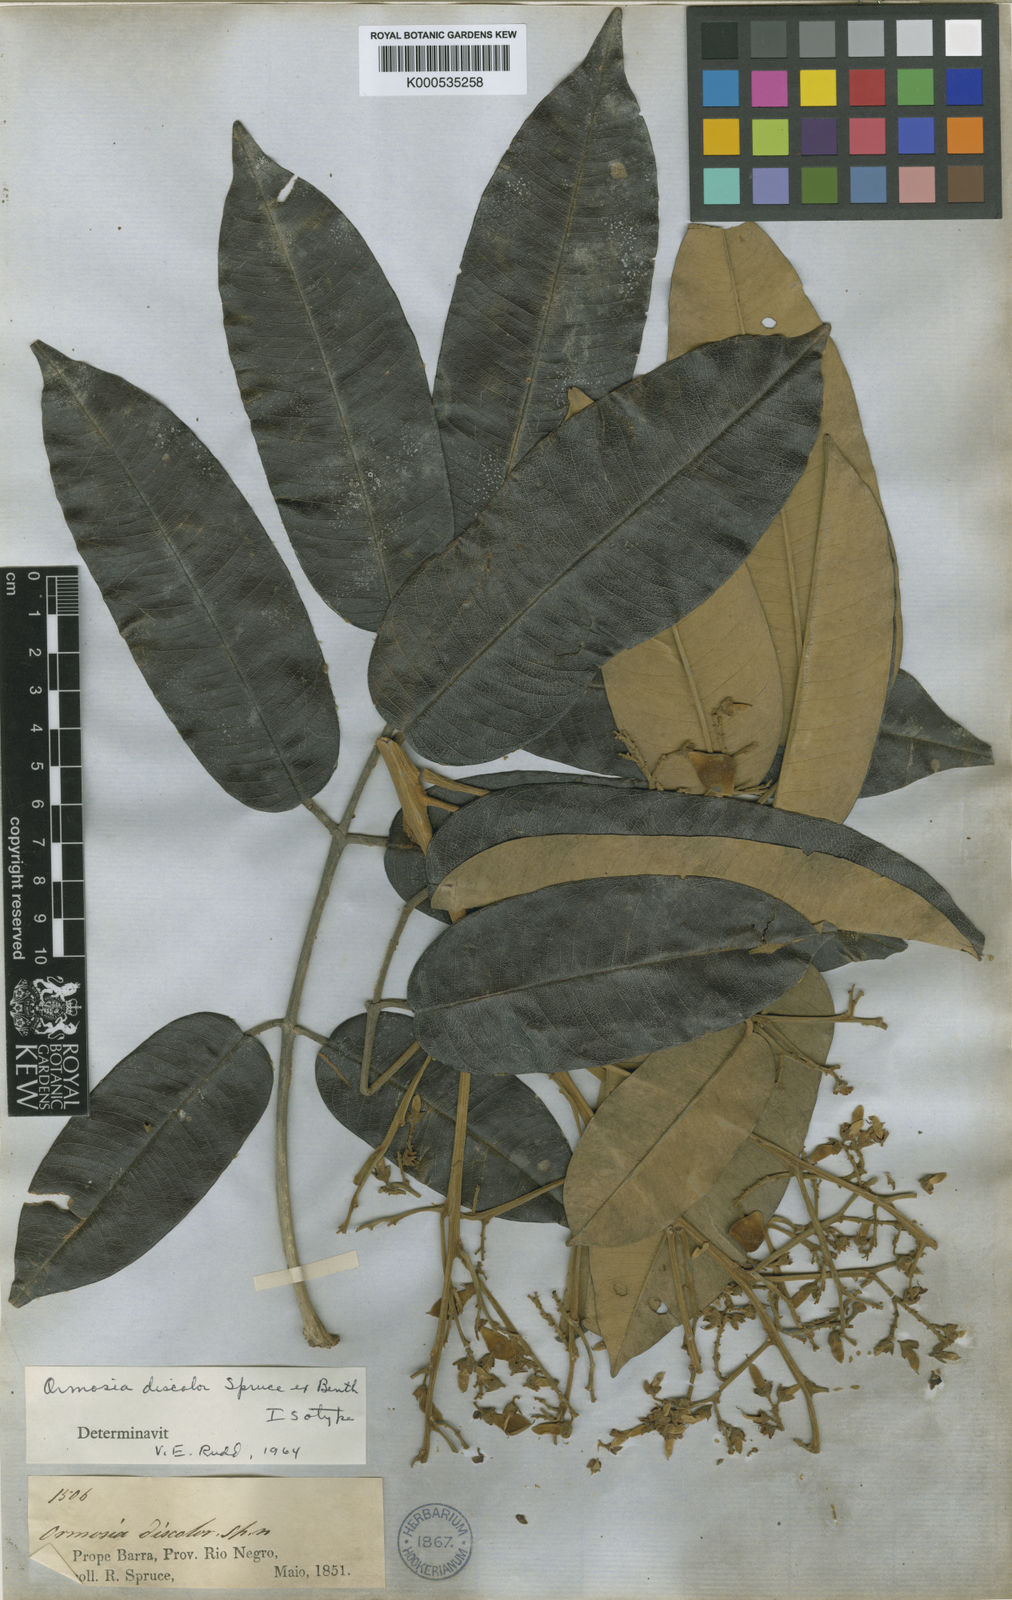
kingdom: Plantae
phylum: Tracheophyta
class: Magnoliopsida
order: Fabales
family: Fabaceae
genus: Ormosia
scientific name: Ormosia discolor
